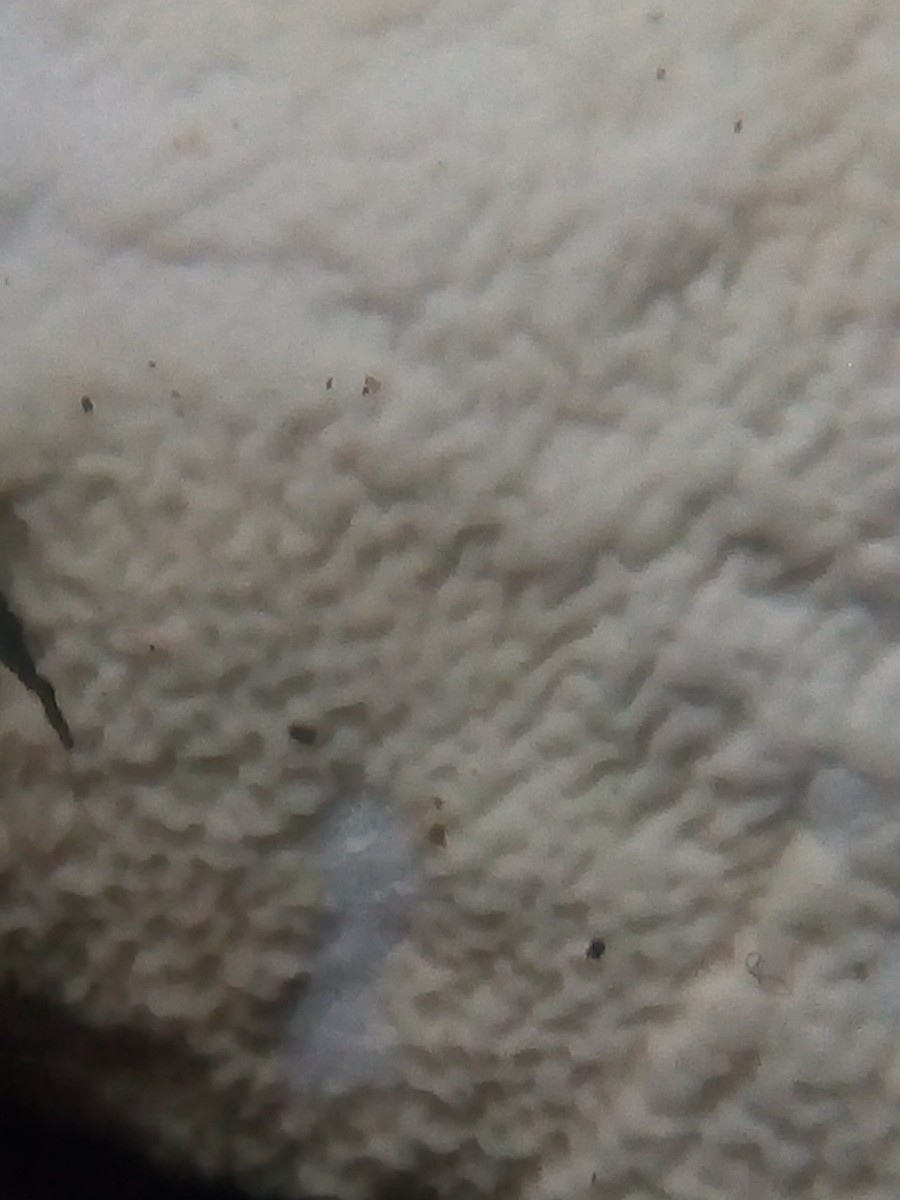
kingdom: Fungi
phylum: Basidiomycota
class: Agaricomycetes
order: Polyporales
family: Irpicaceae
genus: Byssomerulius
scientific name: Byssomerulius corium
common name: læder-åresvamp
